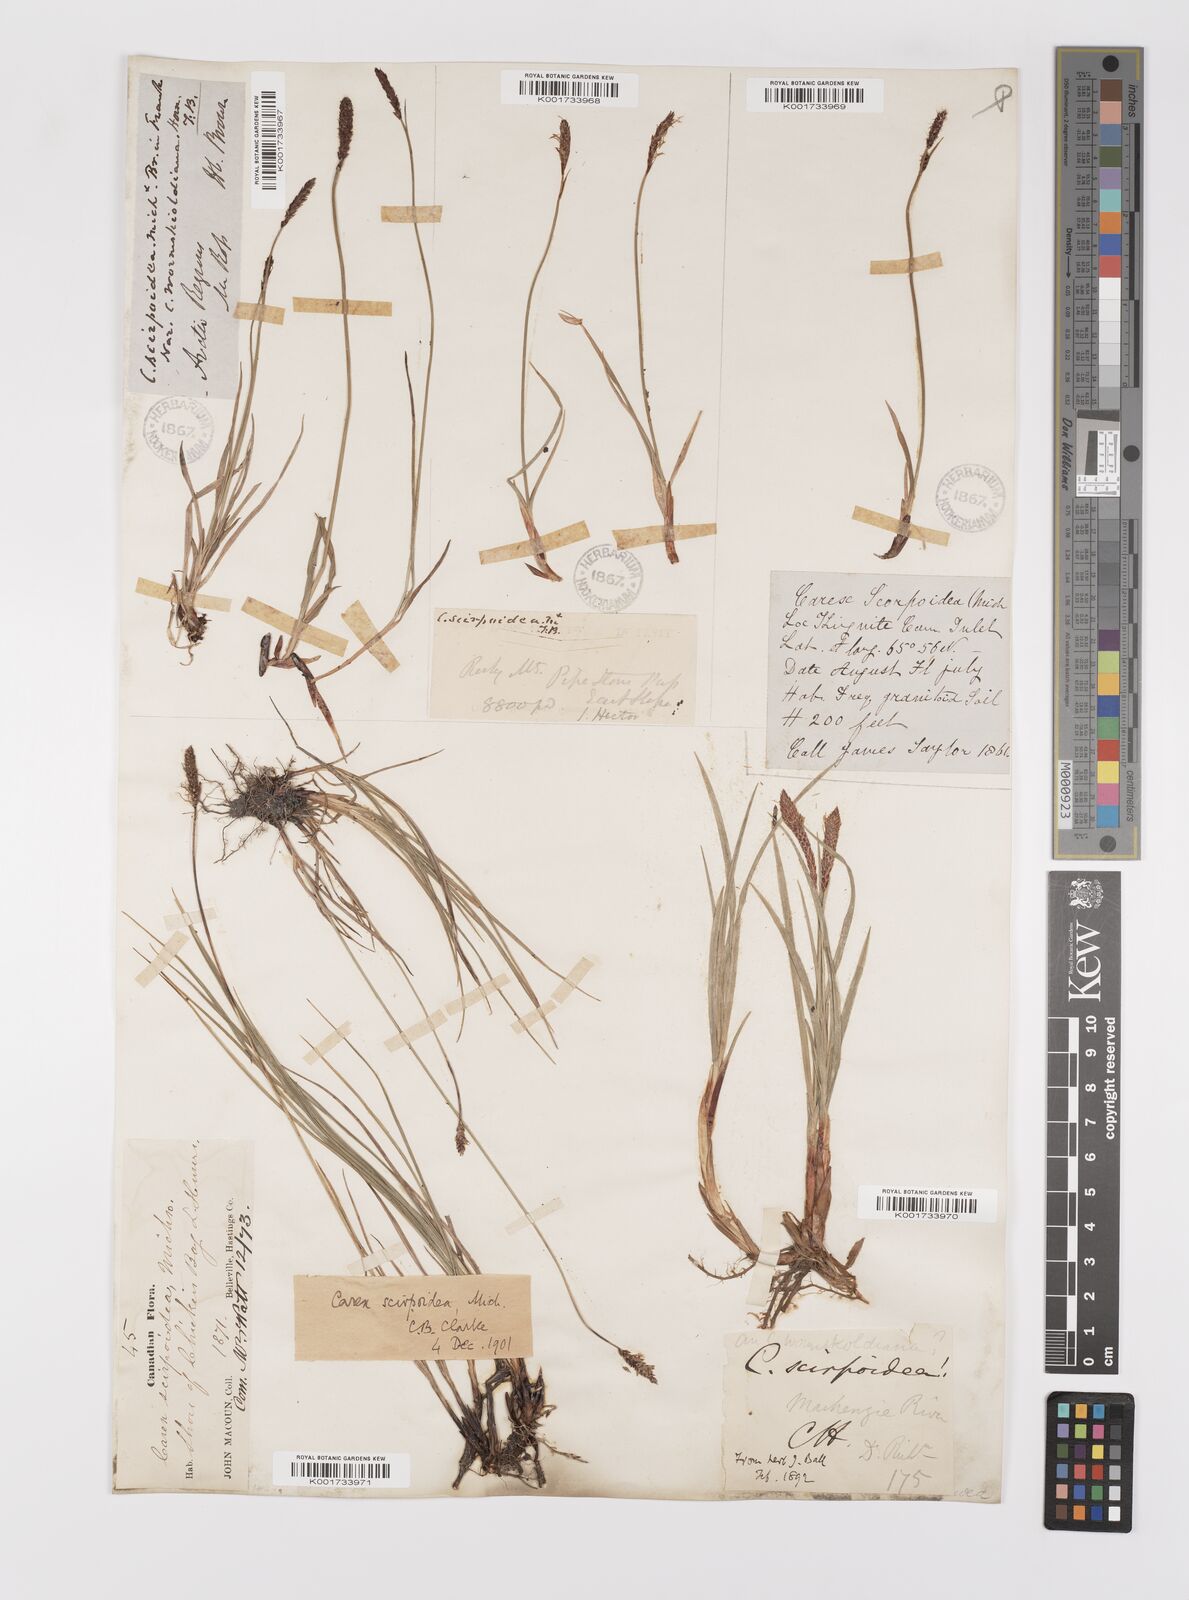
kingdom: Plantae
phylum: Tracheophyta
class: Liliopsida
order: Poales
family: Cyperaceae
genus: Carex
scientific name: Carex scirpoidea
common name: Canada single-spike sedge
